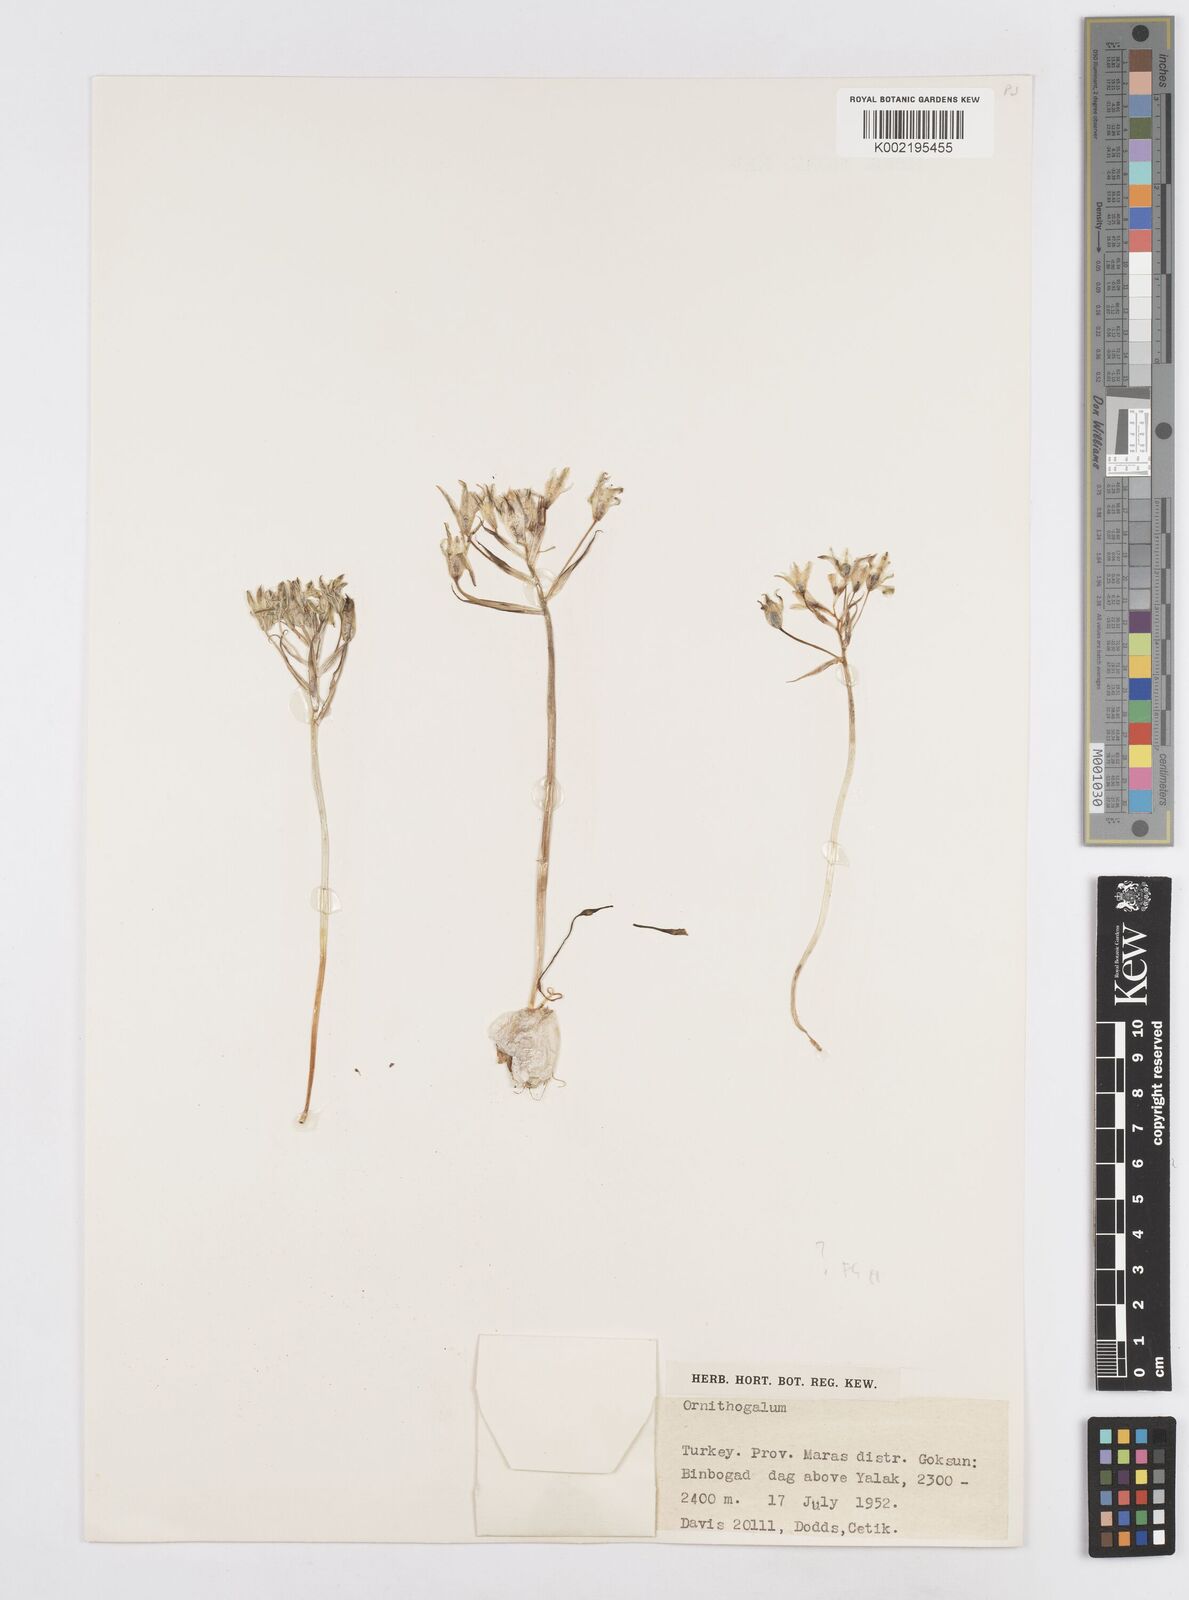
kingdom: Plantae
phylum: Tracheophyta
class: Liliopsida
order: Asparagales
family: Asparagaceae
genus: Ornithogalum
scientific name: Ornithogalum
